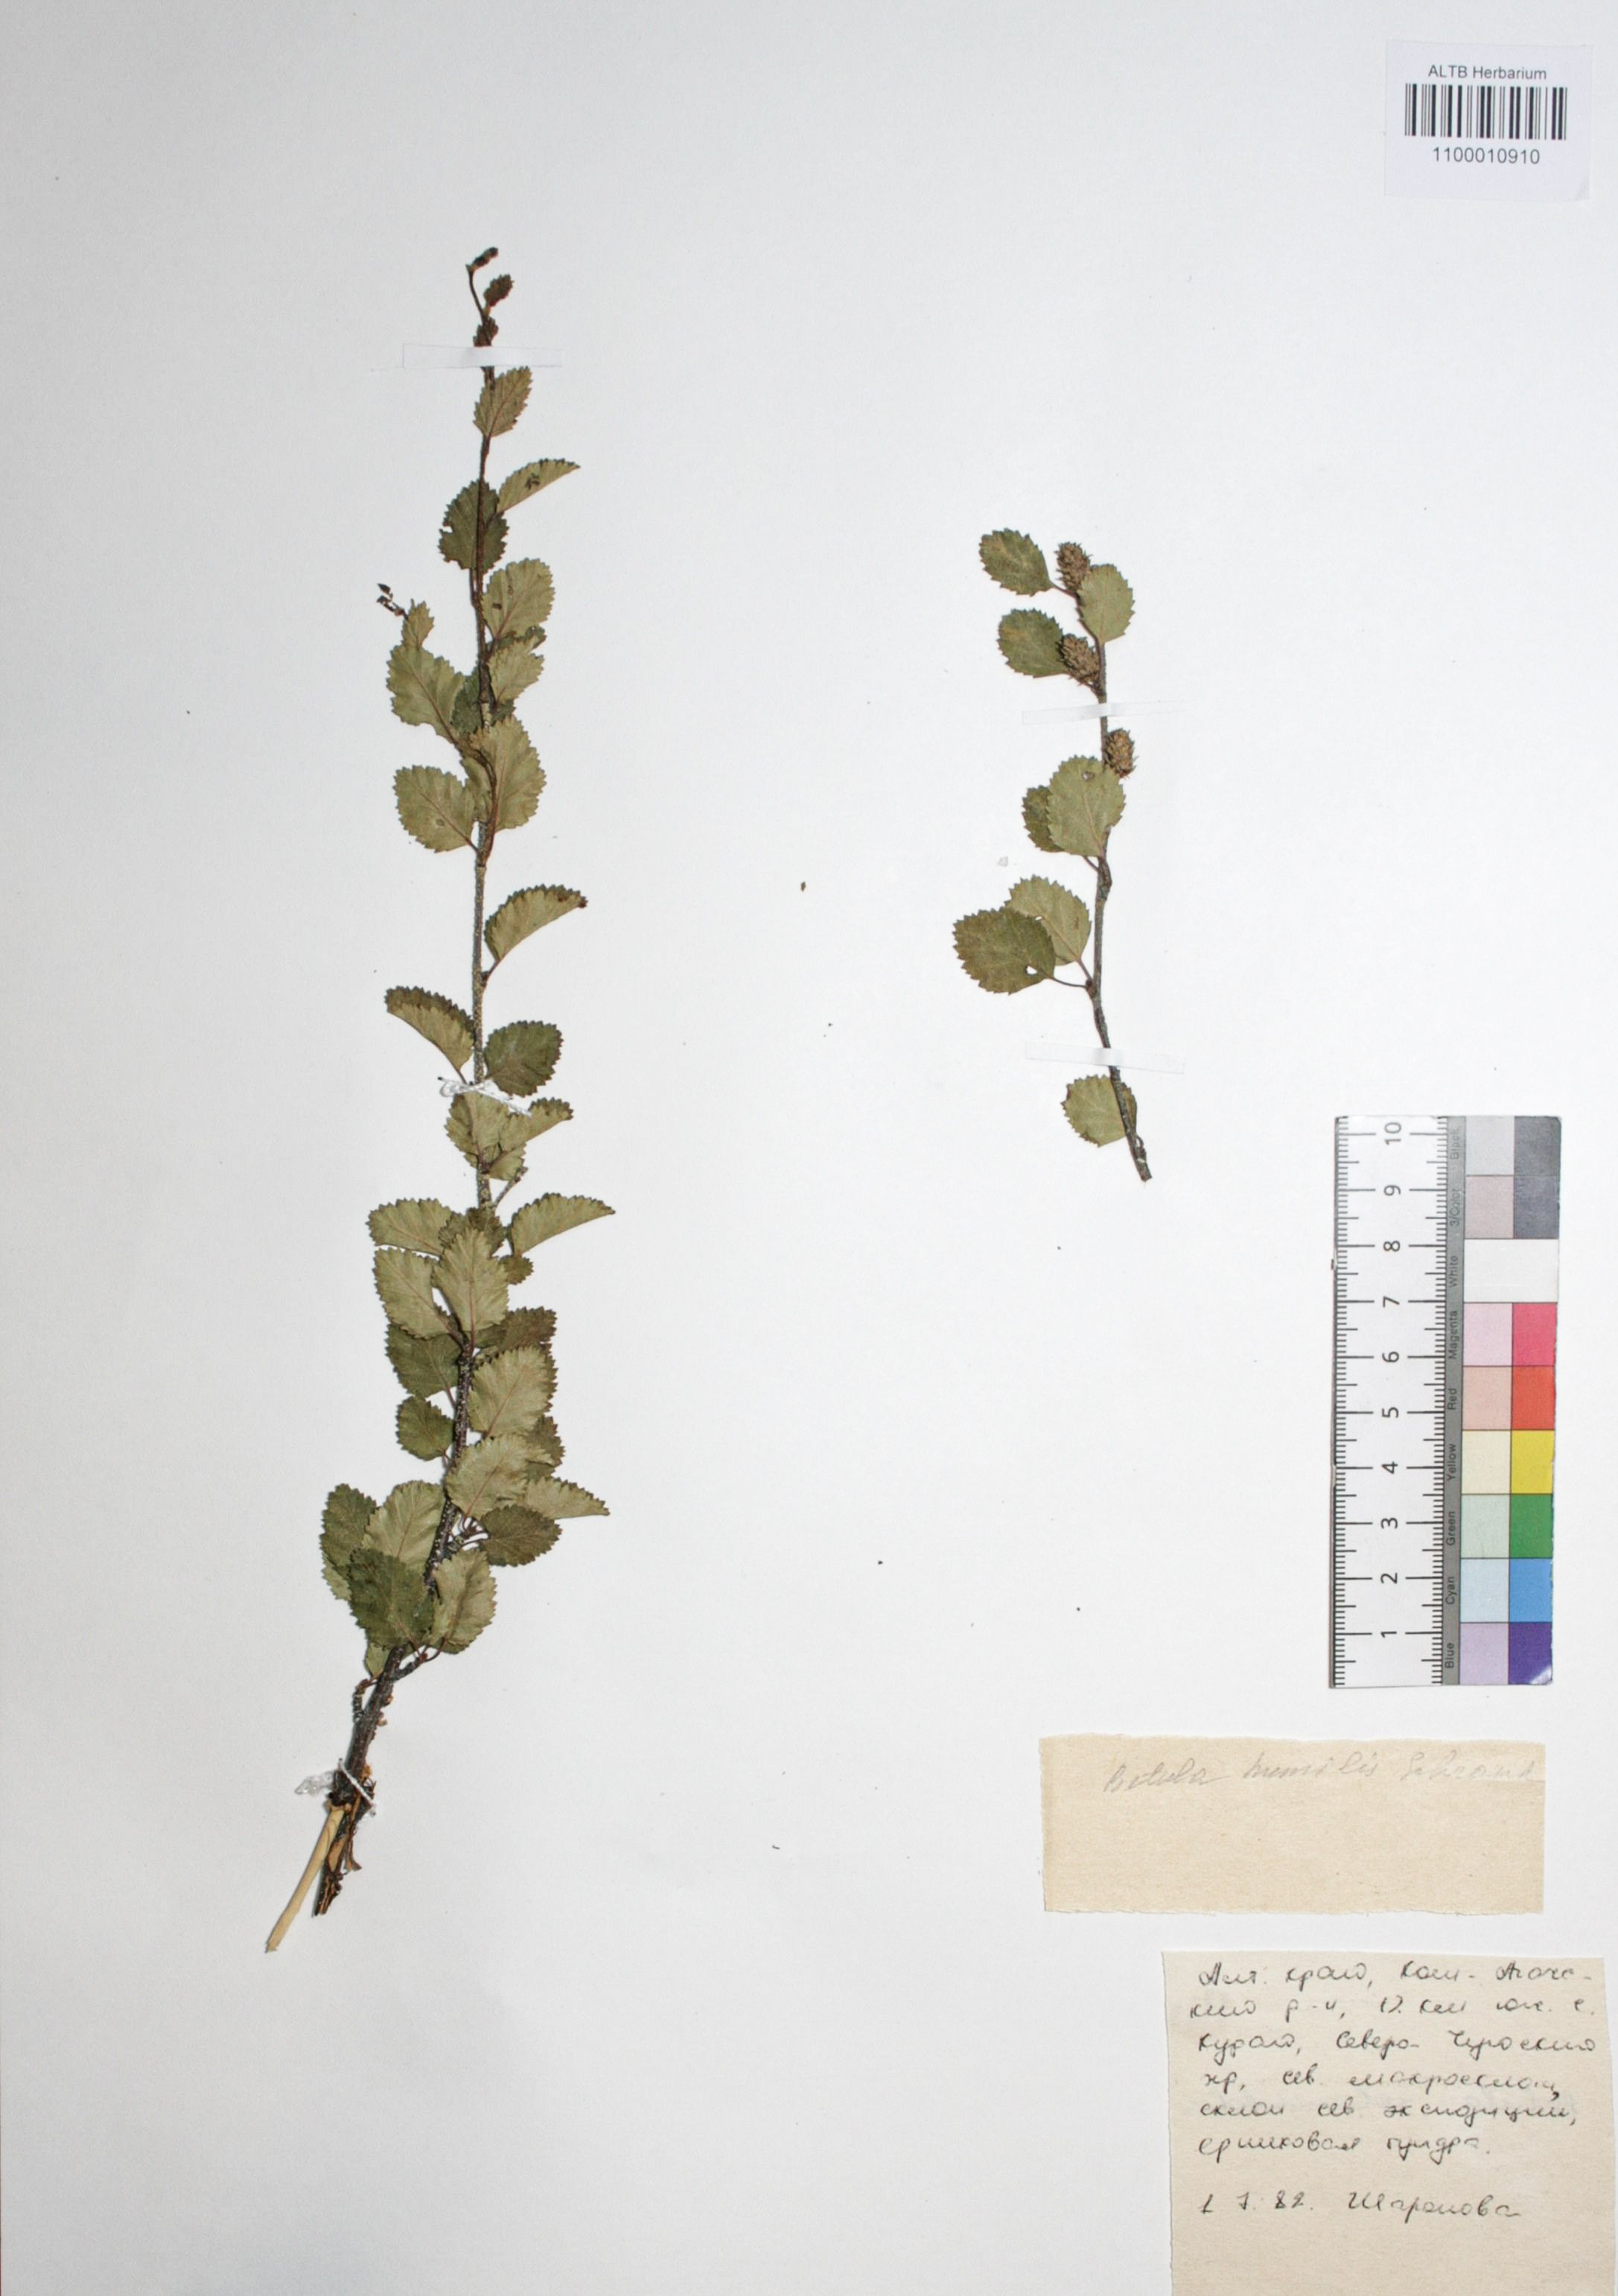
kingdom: Plantae
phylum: Tracheophyta
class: Magnoliopsida
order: Fagales
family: Betulaceae
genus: Betula
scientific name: Betula humilis
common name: Shrubby birch
